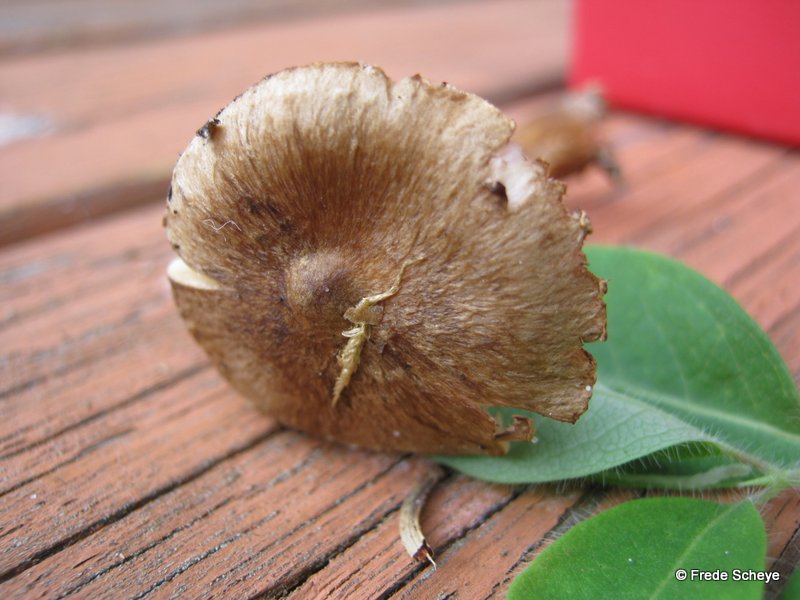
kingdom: Fungi
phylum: Basidiomycota
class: Agaricomycetes
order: Agaricales
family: Inocybaceae
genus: Inocybe
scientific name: Inocybe soluta
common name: lysbladet trævlhat
